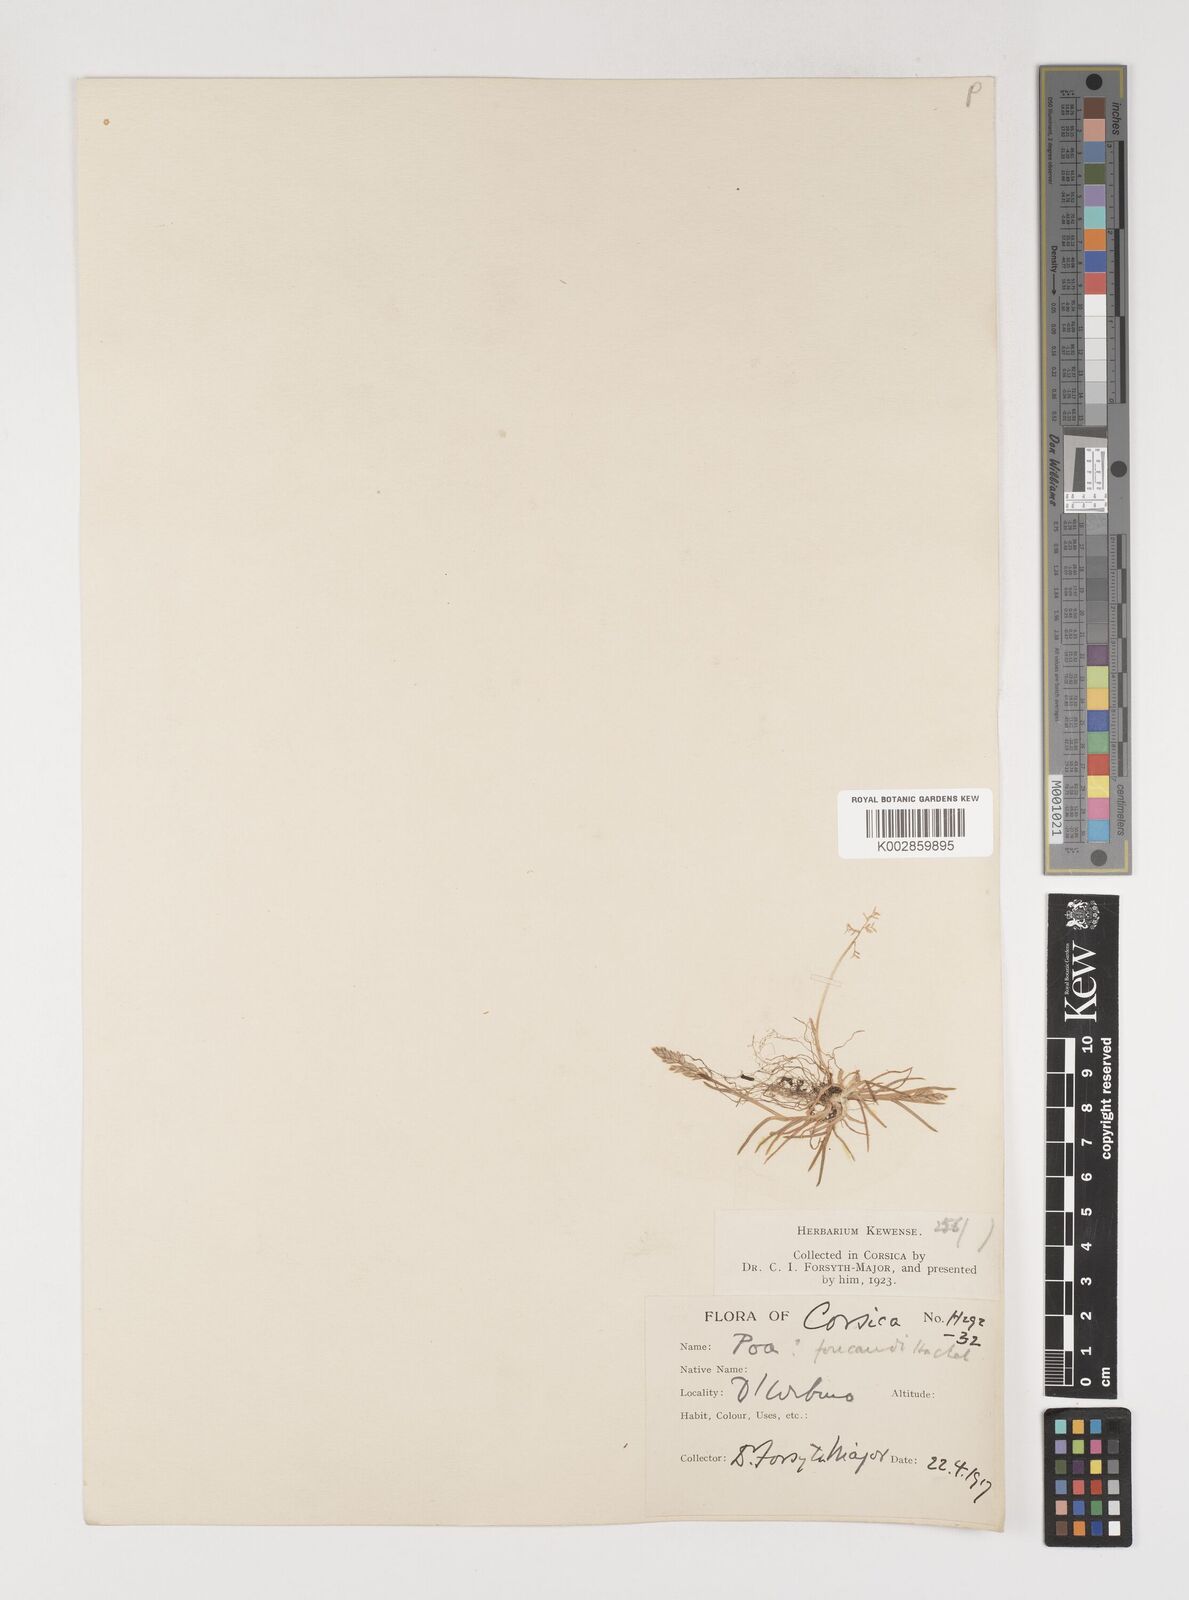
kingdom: Plantae
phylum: Tracheophyta
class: Liliopsida
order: Poales
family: Poaceae
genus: Poa
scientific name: Poa annua
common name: Annual bluegrass
